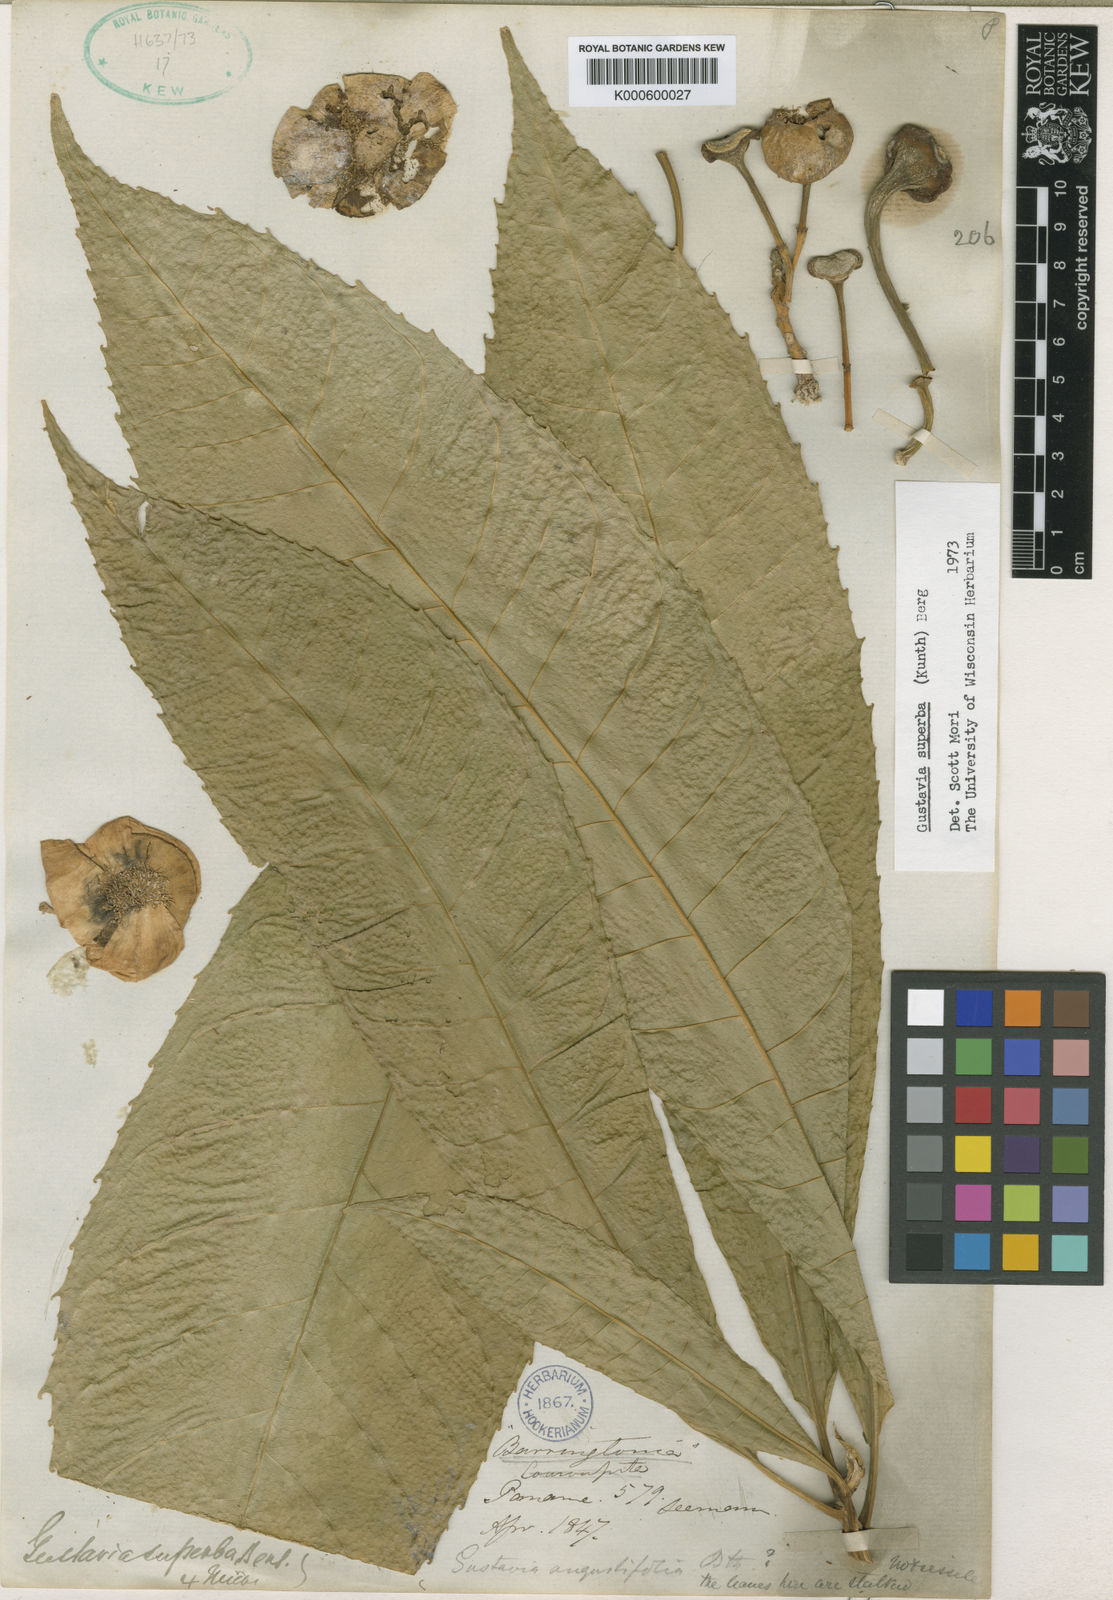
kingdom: Plantae
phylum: Tracheophyta
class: Magnoliopsida
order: Ericales
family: Lecythidaceae
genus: Gustavia
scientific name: Gustavia superba
